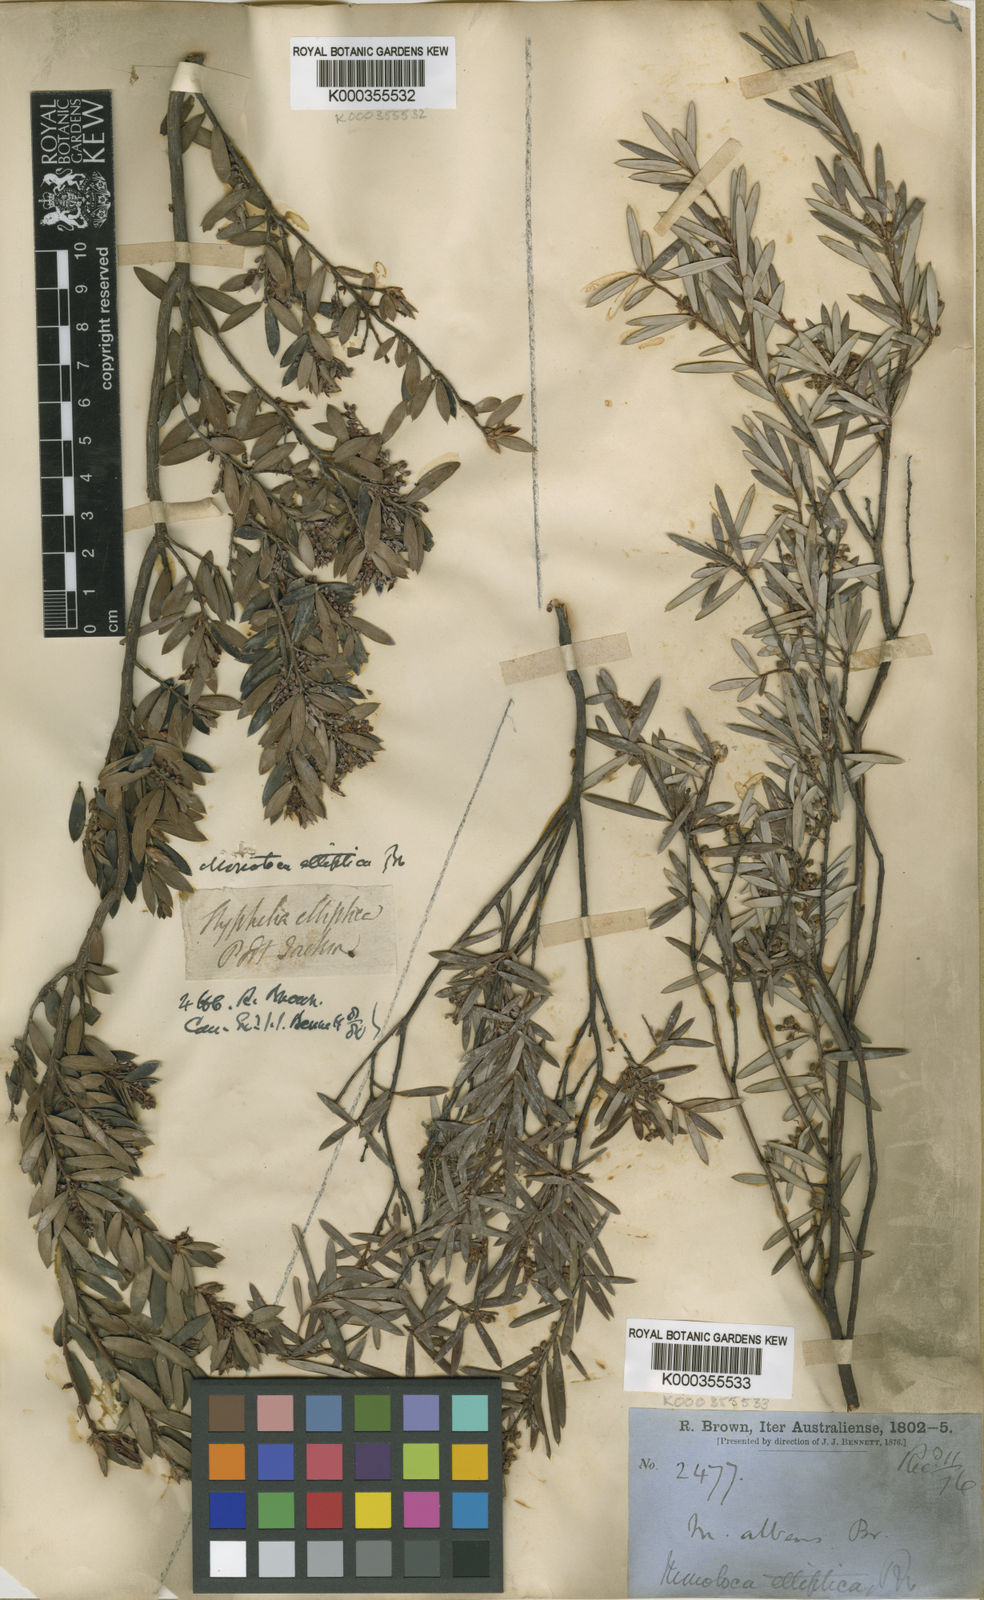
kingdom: Plantae
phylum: Tracheophyta
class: Magnoliopsida
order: Ericales
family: Ericaceae
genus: Monotoca
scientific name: Monotoca elliptica
